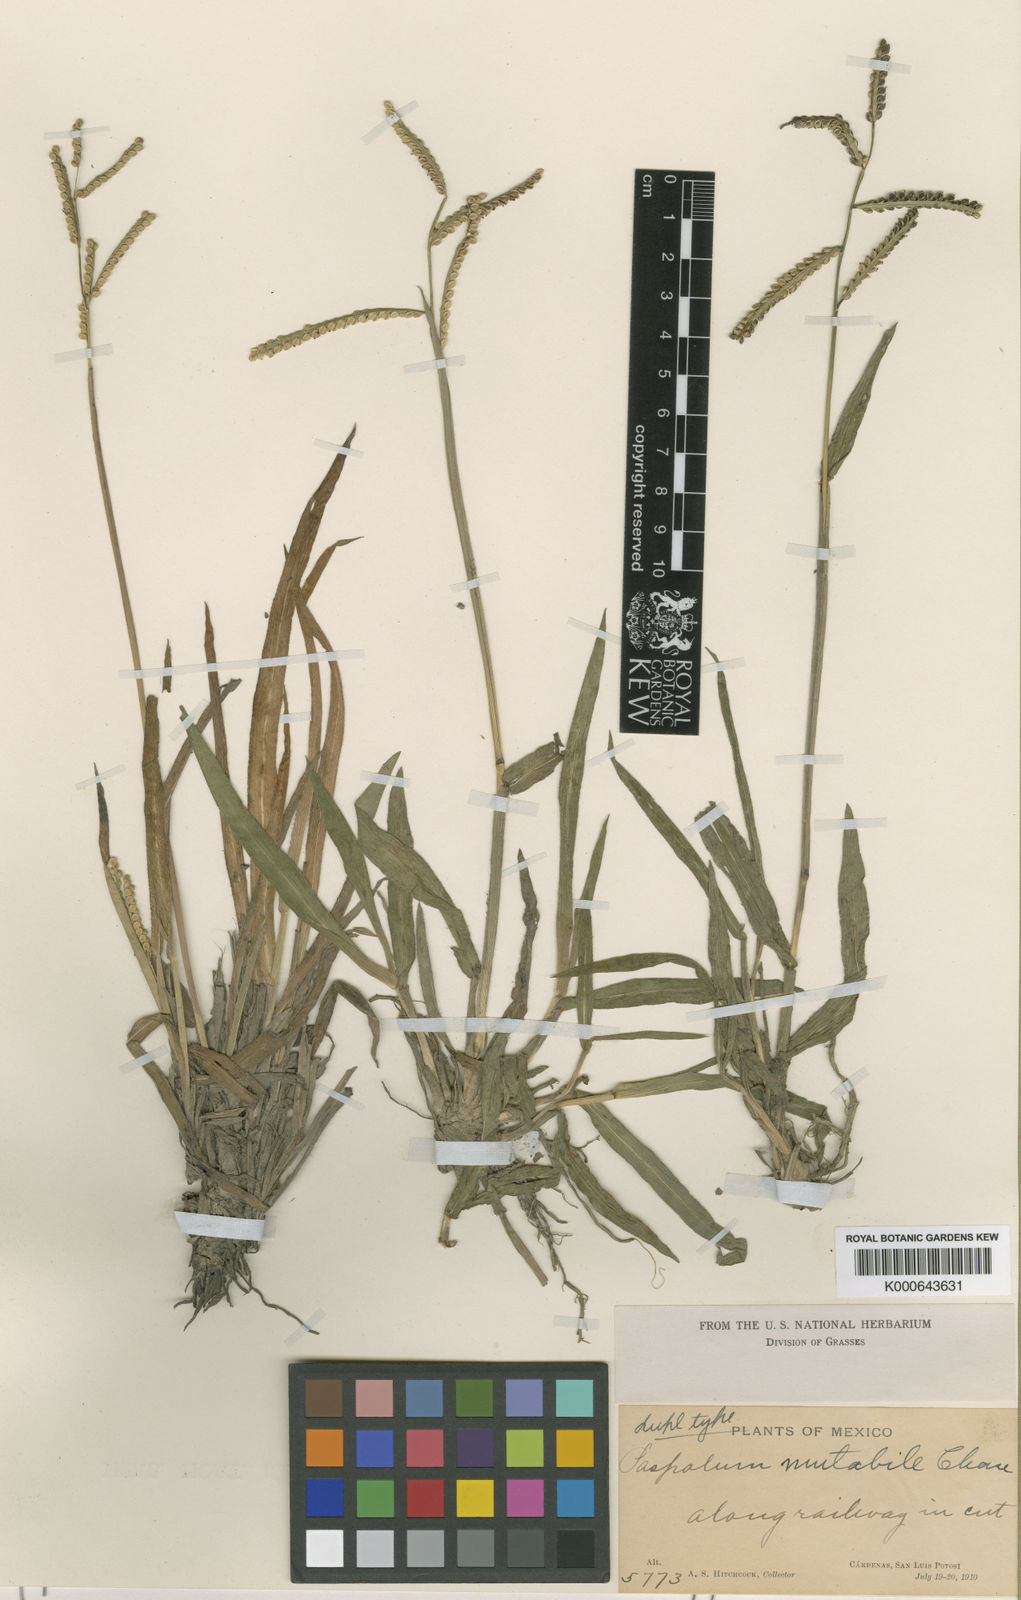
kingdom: Plantae
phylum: Tracheophyta
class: Liliopsida
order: Poales
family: Poaceae
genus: Paspalum
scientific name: Paspalum mutabile
